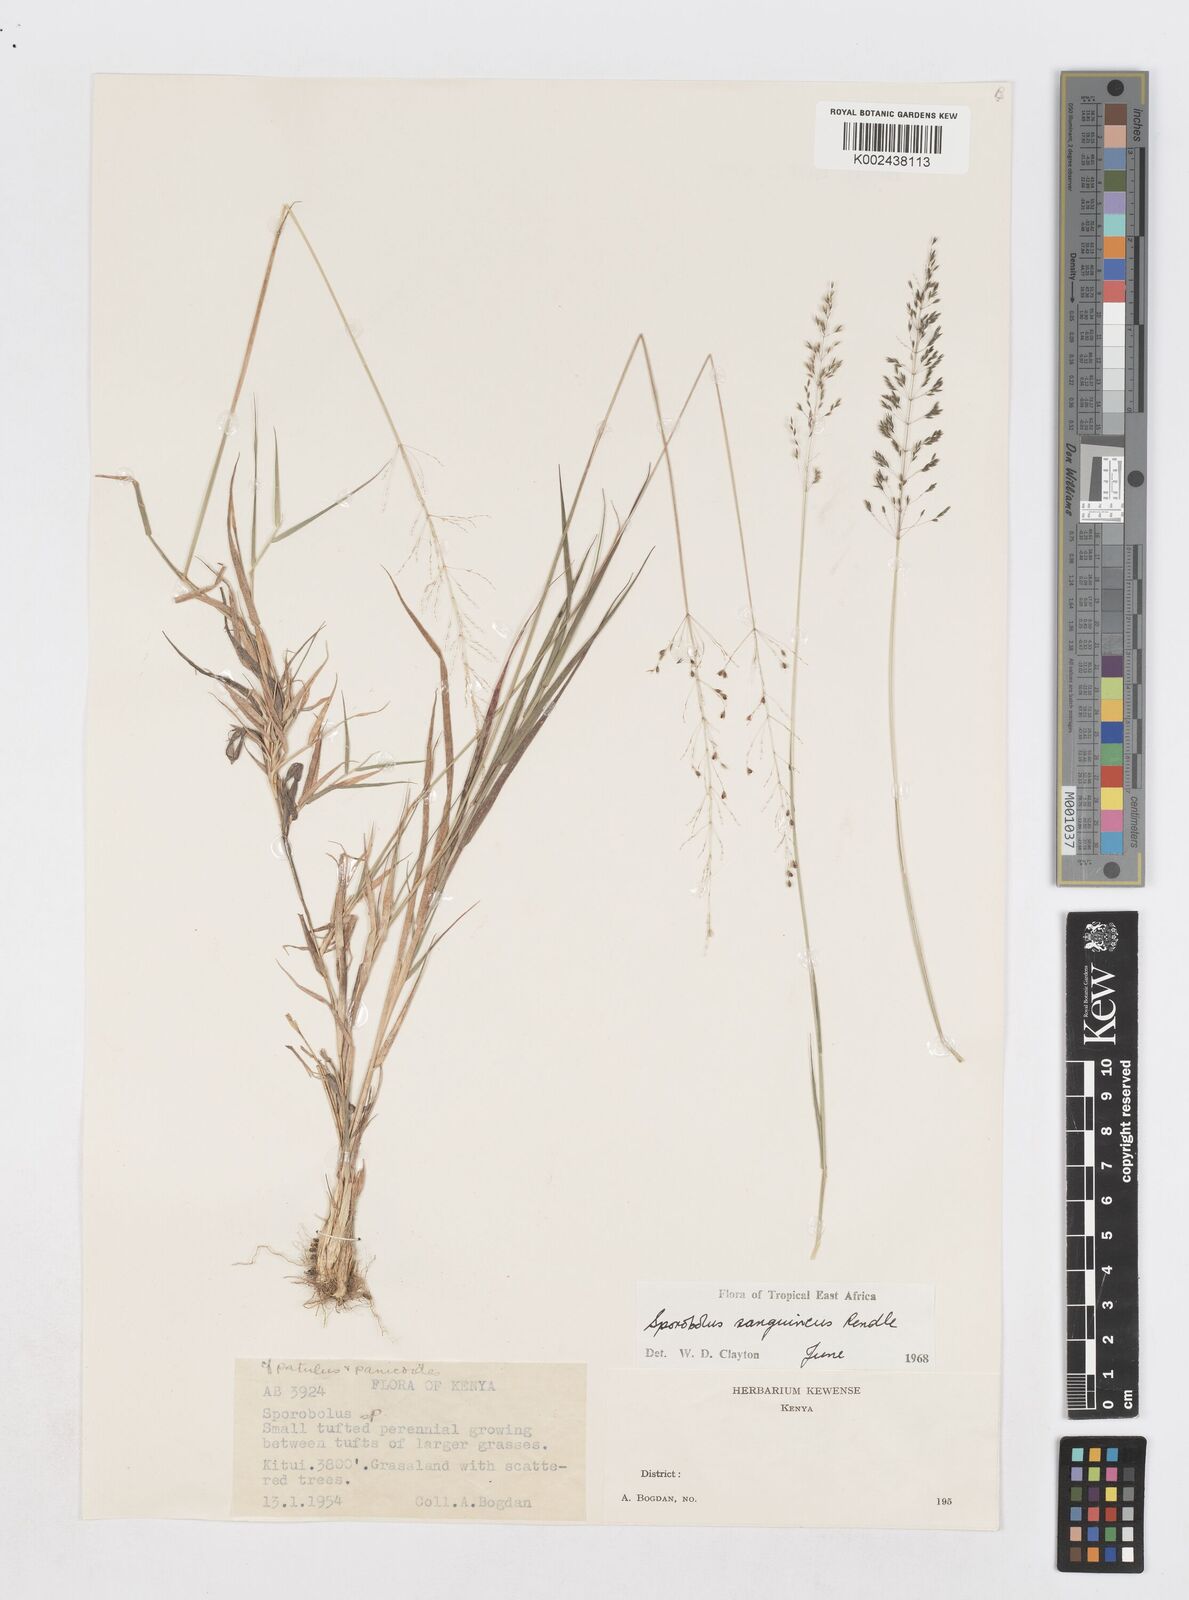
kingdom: Plantae
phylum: Tracheophyta
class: Liliopsida
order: Poales
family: Poaceae
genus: Sporobolus
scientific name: Sporobolus sanguineus
